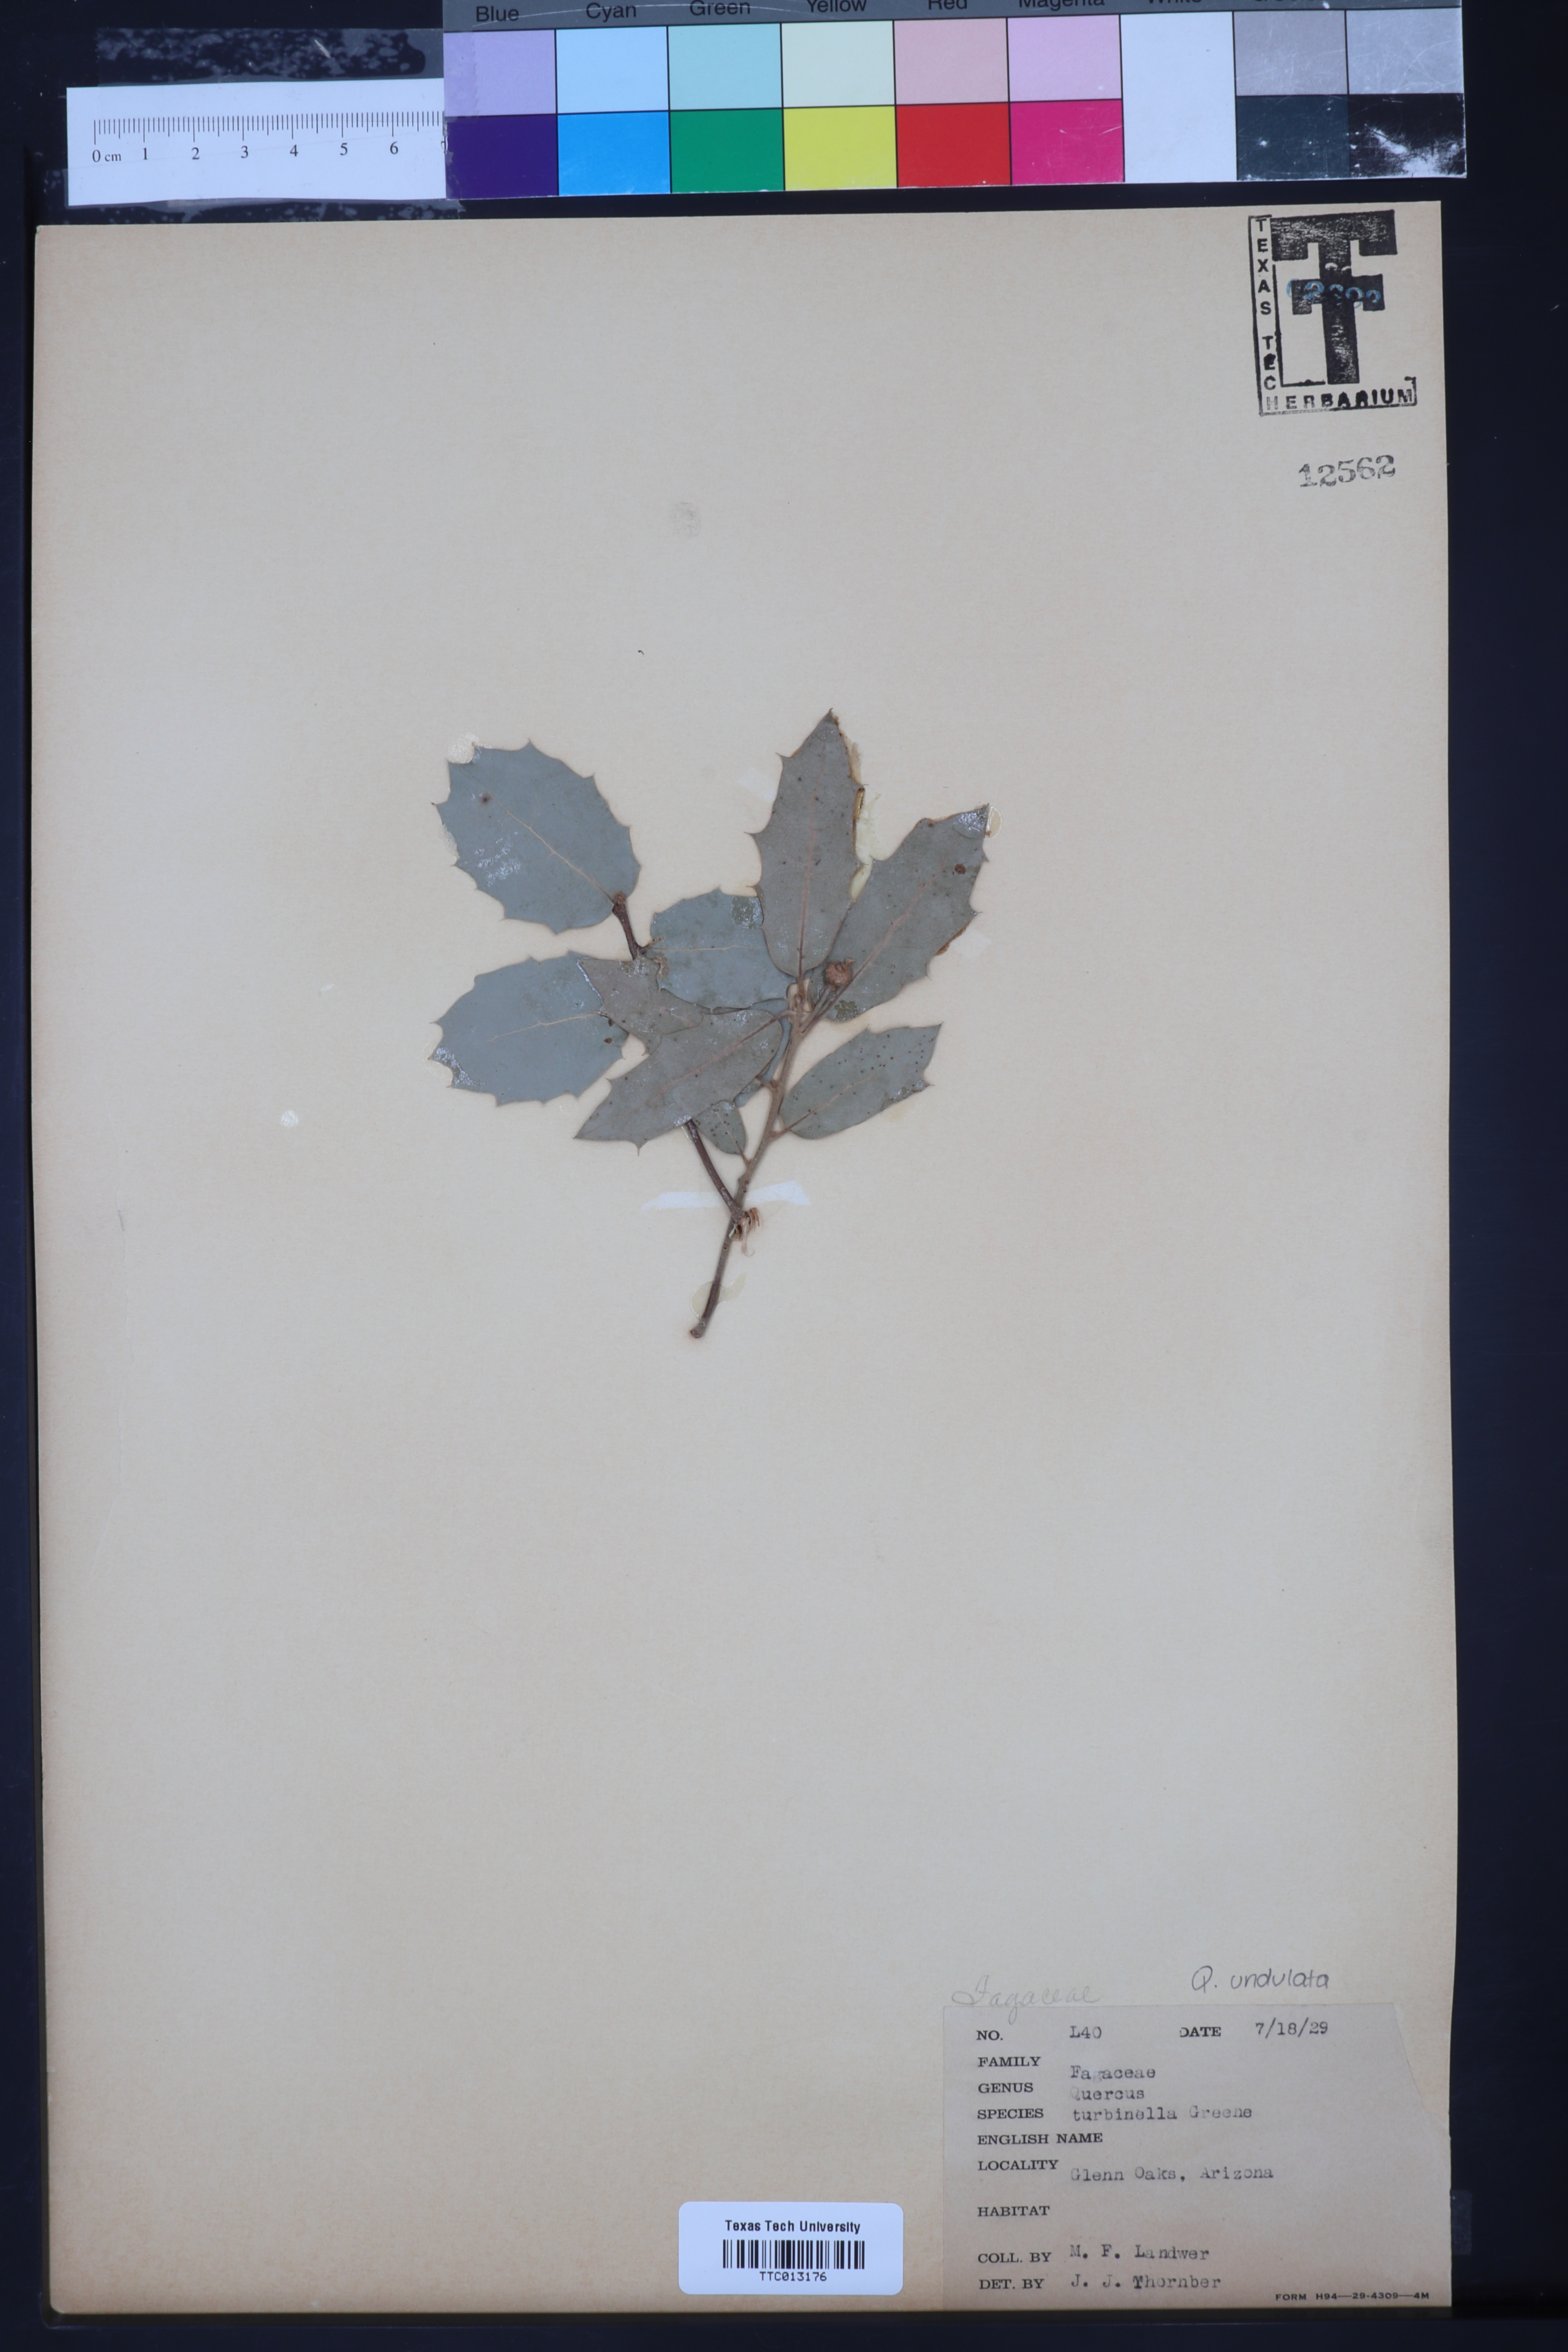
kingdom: Plantae
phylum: Tracheophyta
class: Magnoliopsida
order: Fagales
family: Fagaceae
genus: Quercus
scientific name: Quercus turbinella
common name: Sonoran scrub oak
